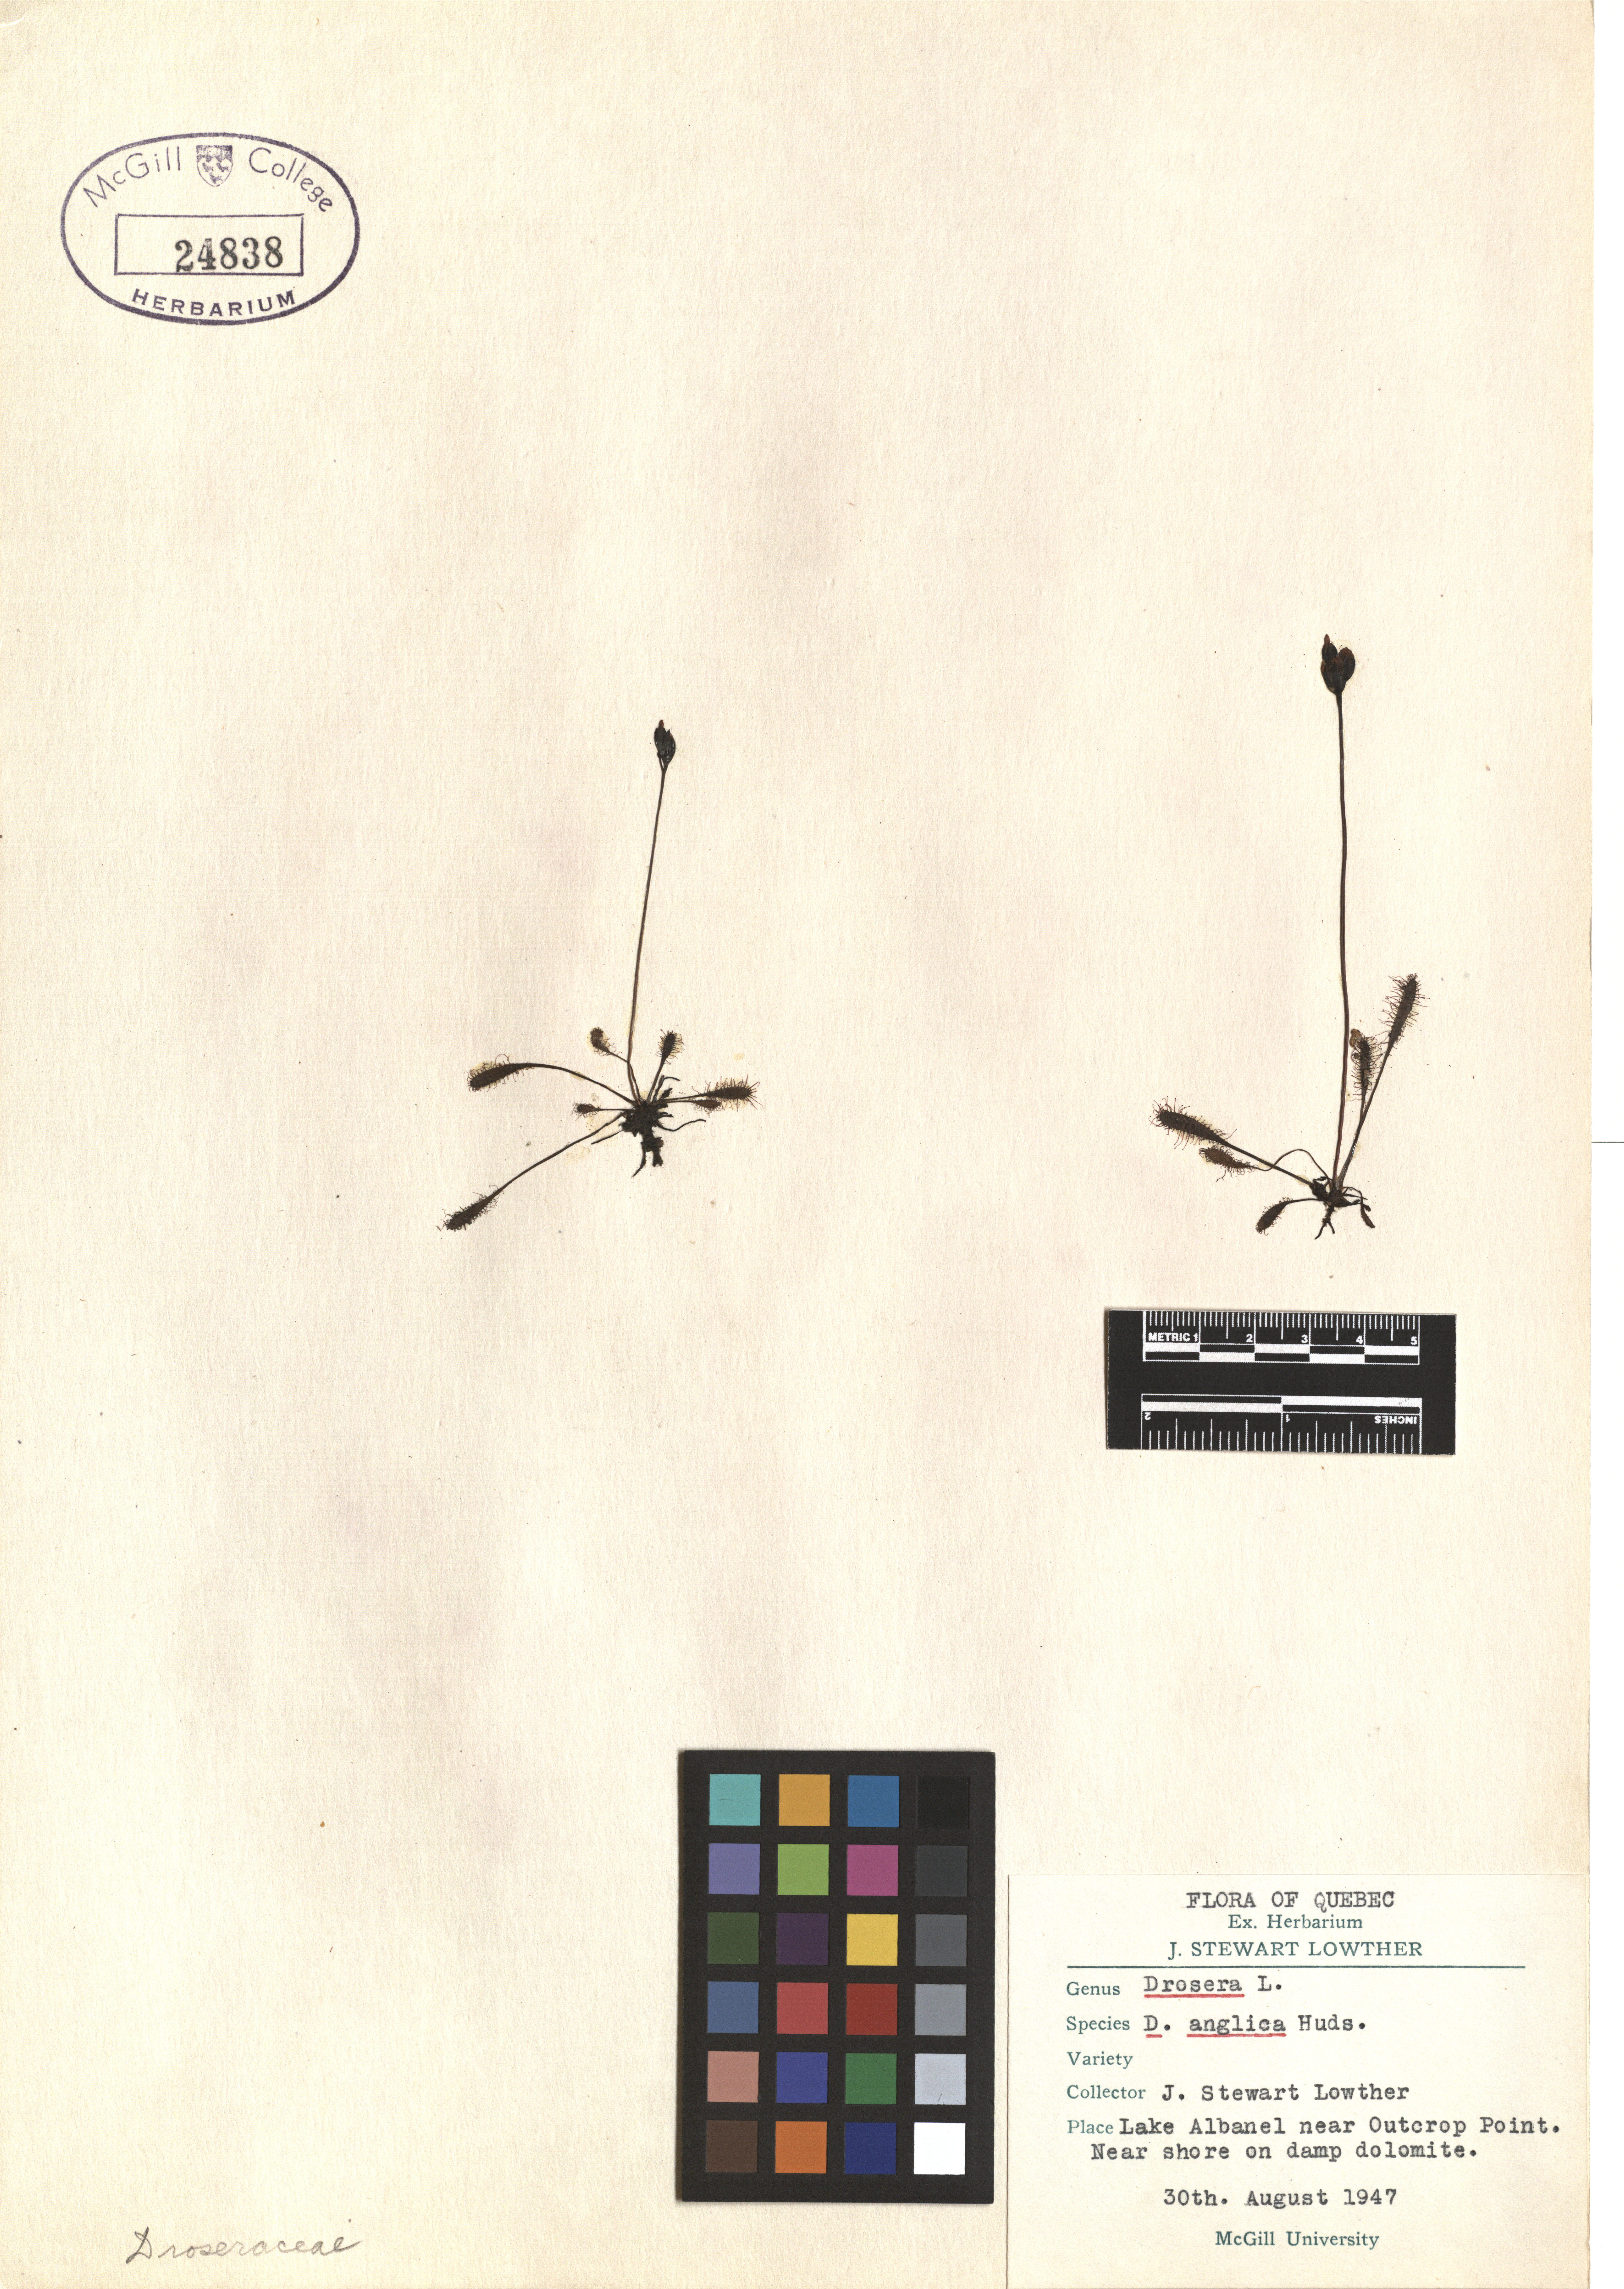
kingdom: Plantae
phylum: Tracheophyta
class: Magnoliopsida
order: Caryophyllales
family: Droseraceae
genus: Drosera
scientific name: Drosera anglica
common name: Great sundew
